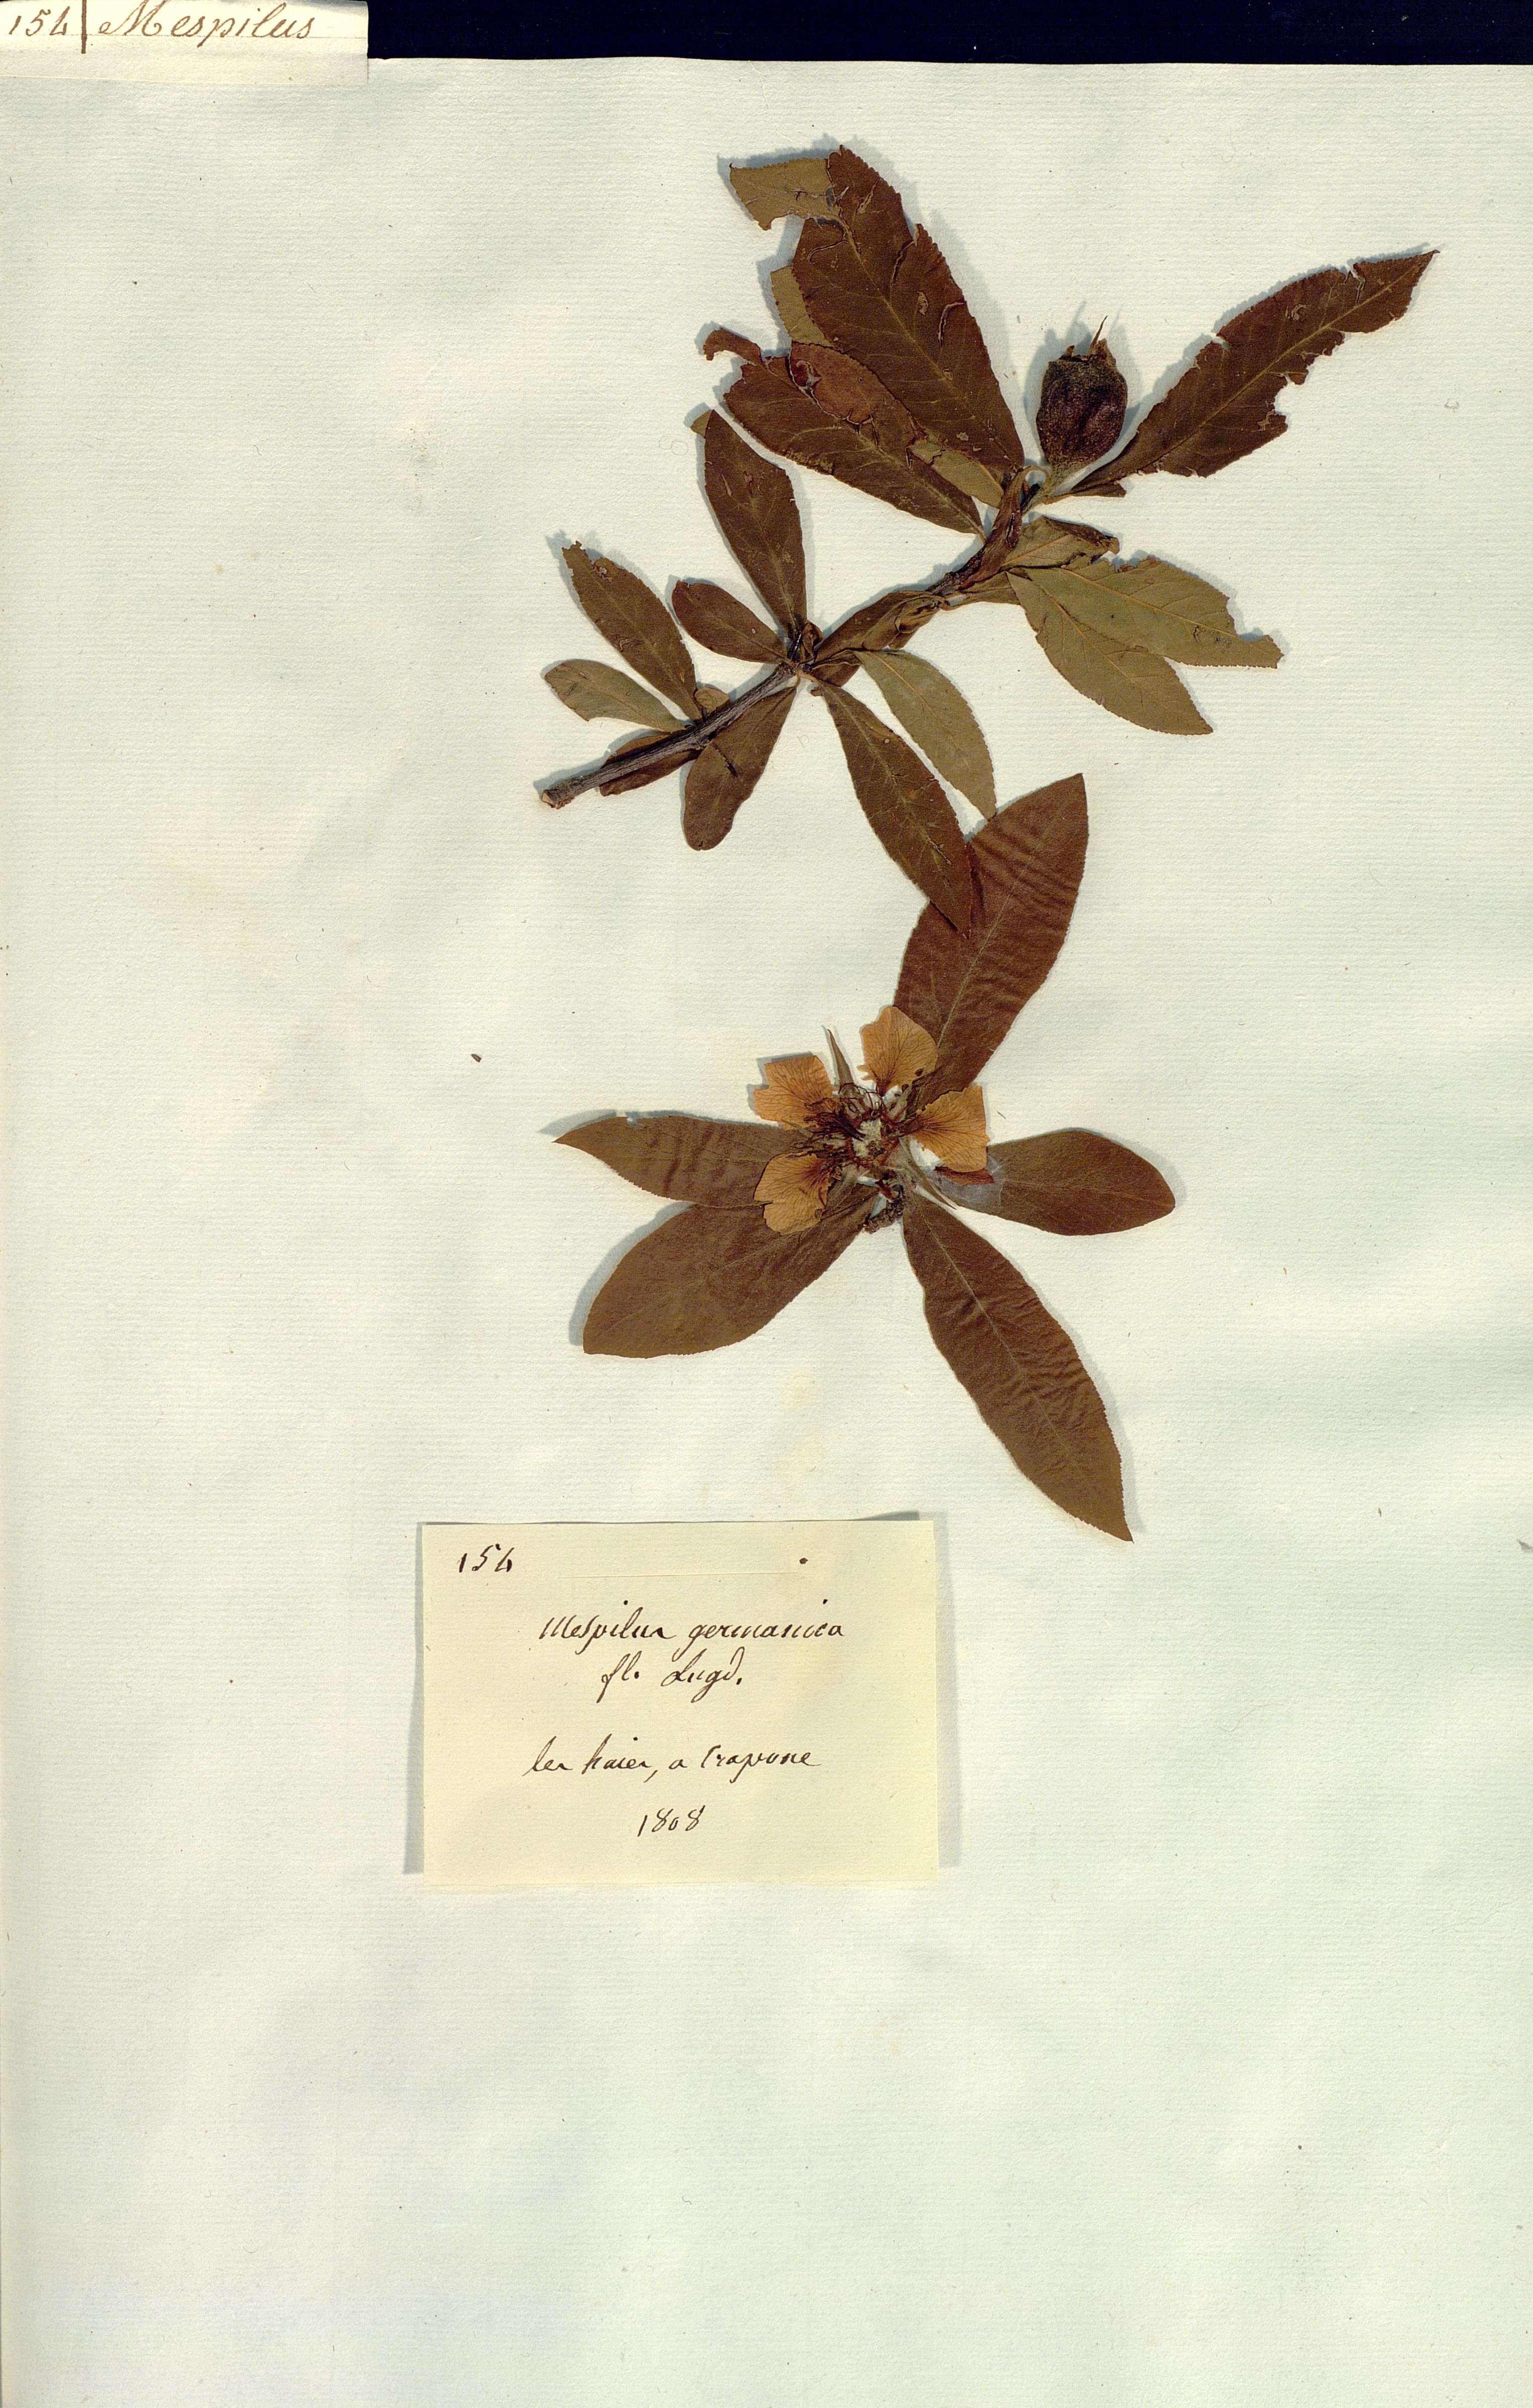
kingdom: Plantae
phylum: Tracheophyta
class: Magnoliopsida
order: Rosales
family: Rosaceae
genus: Mespilus
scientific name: Mespilus germanica
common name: Medlar
